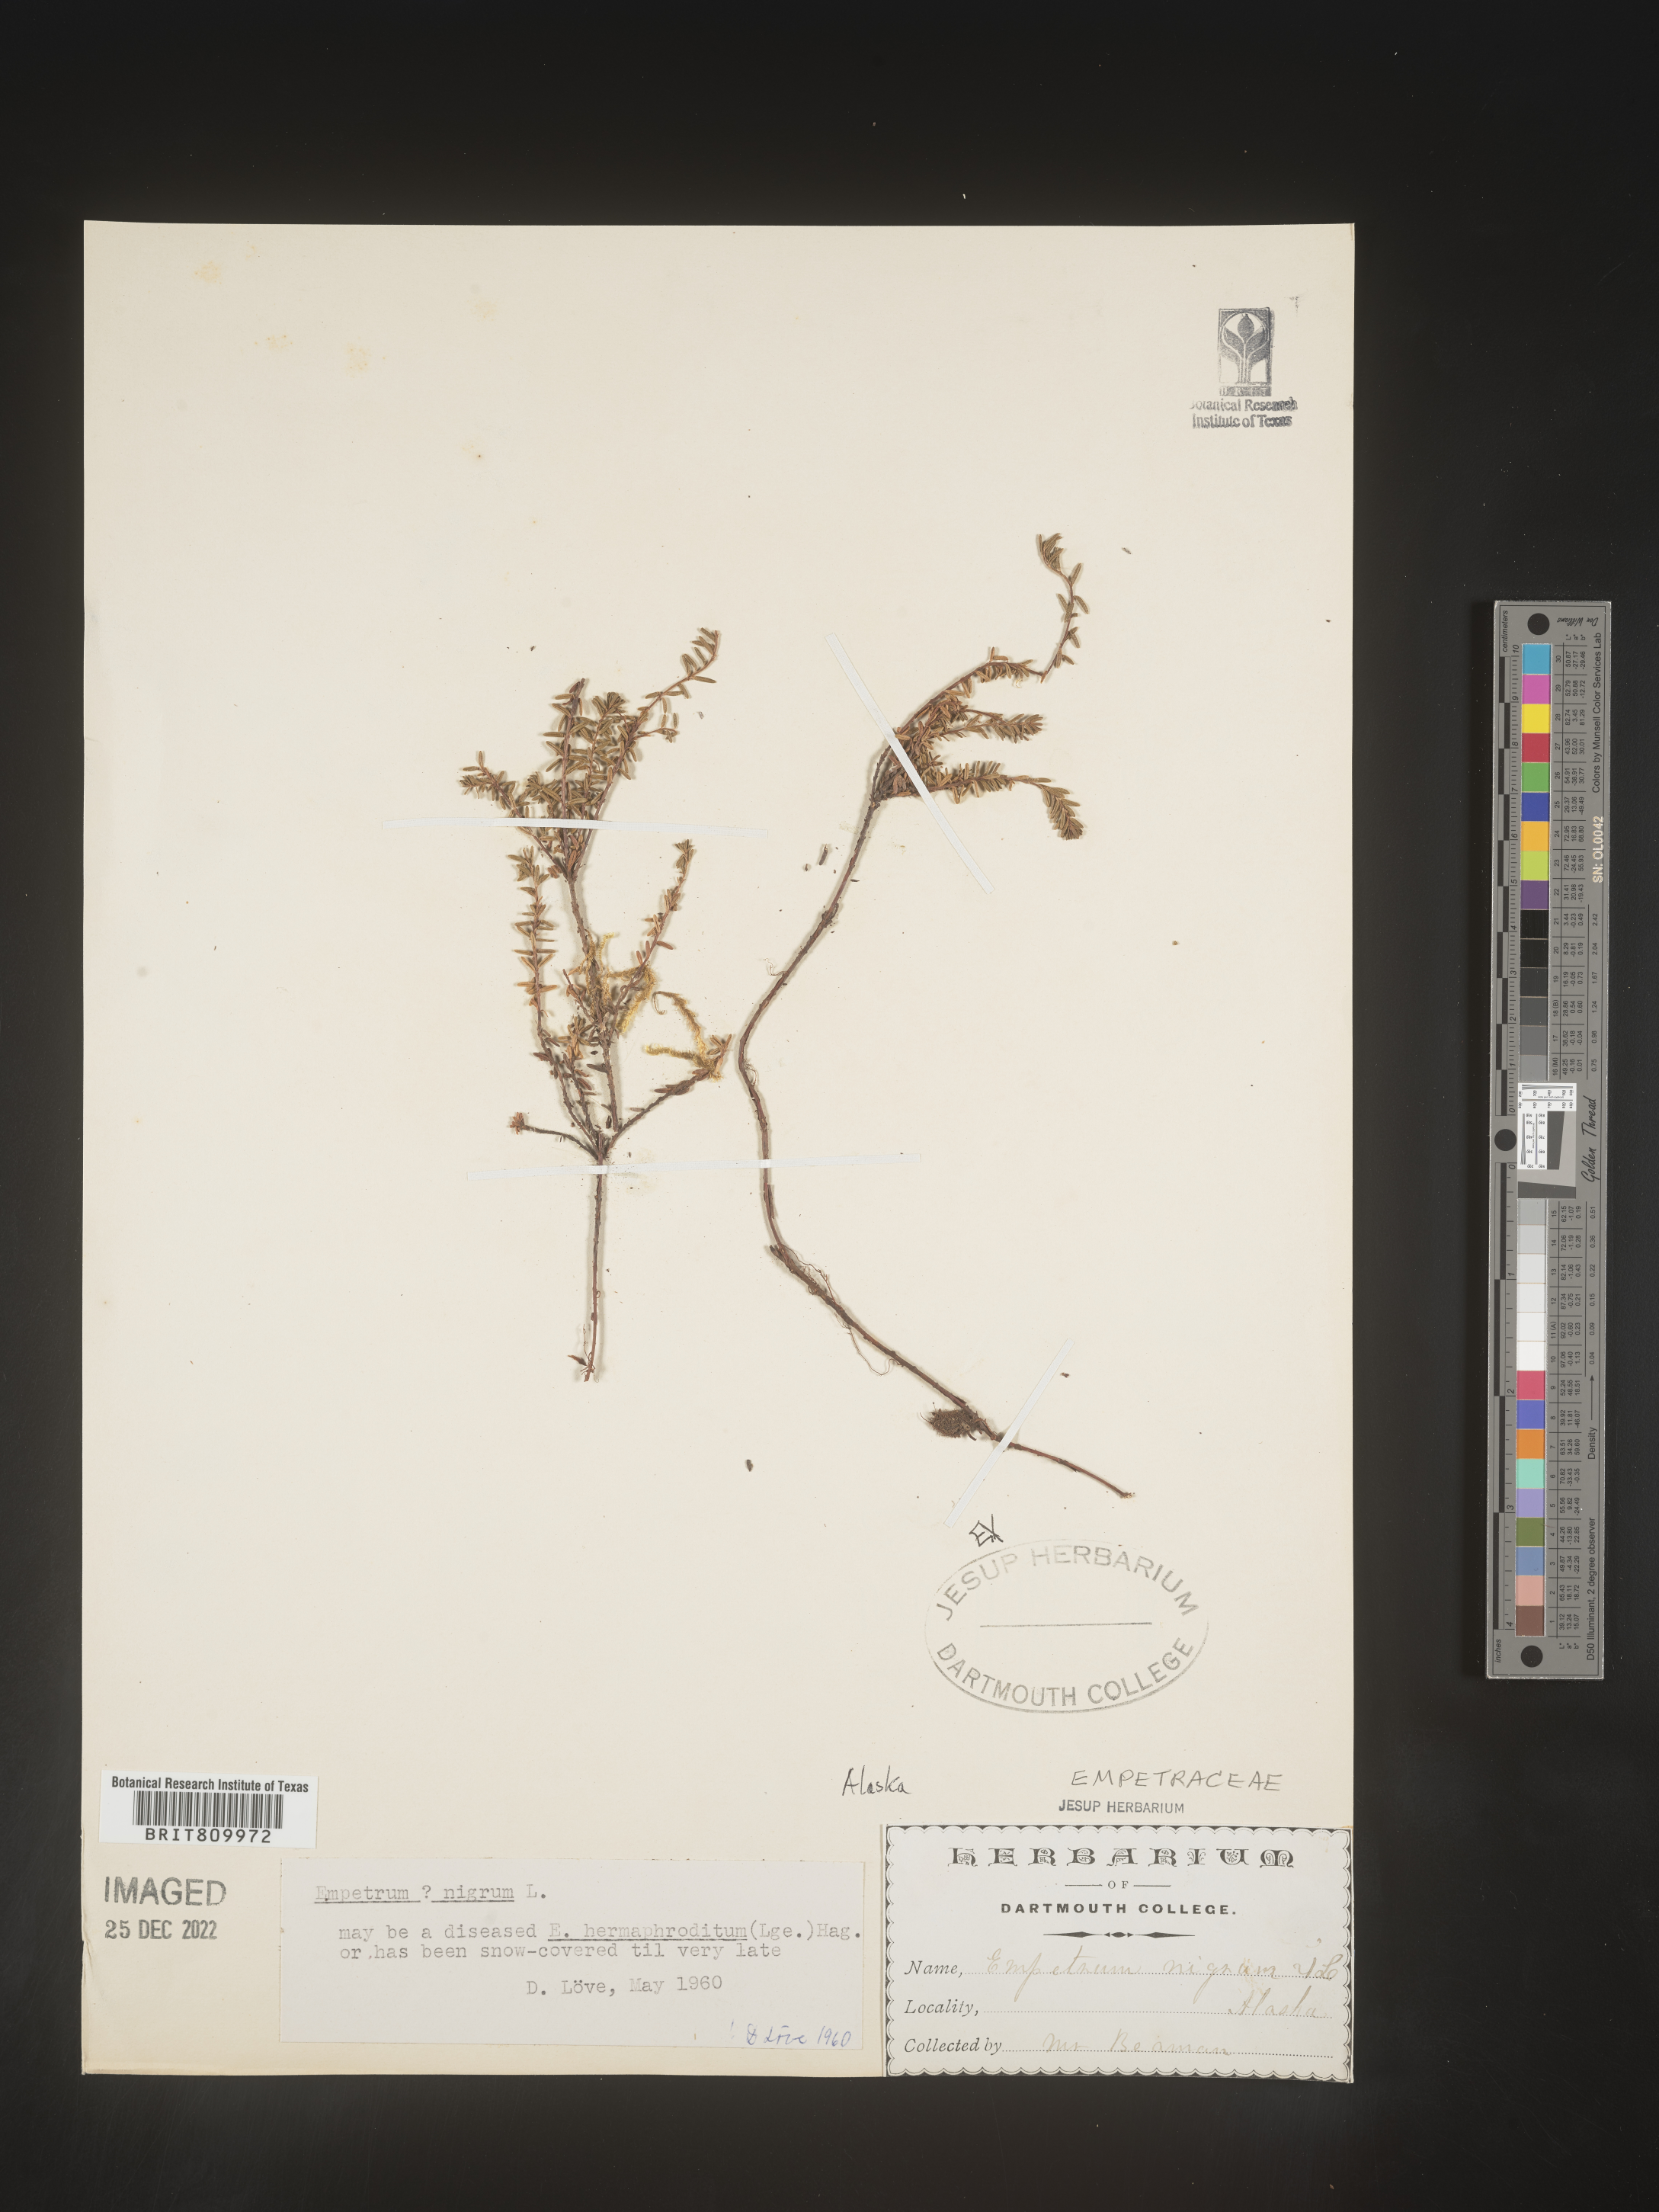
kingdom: Plantae
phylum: Tracheophyta
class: Magnoliopsida
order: Ericales
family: Ericaceae
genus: Empetrum
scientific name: Empetrum
